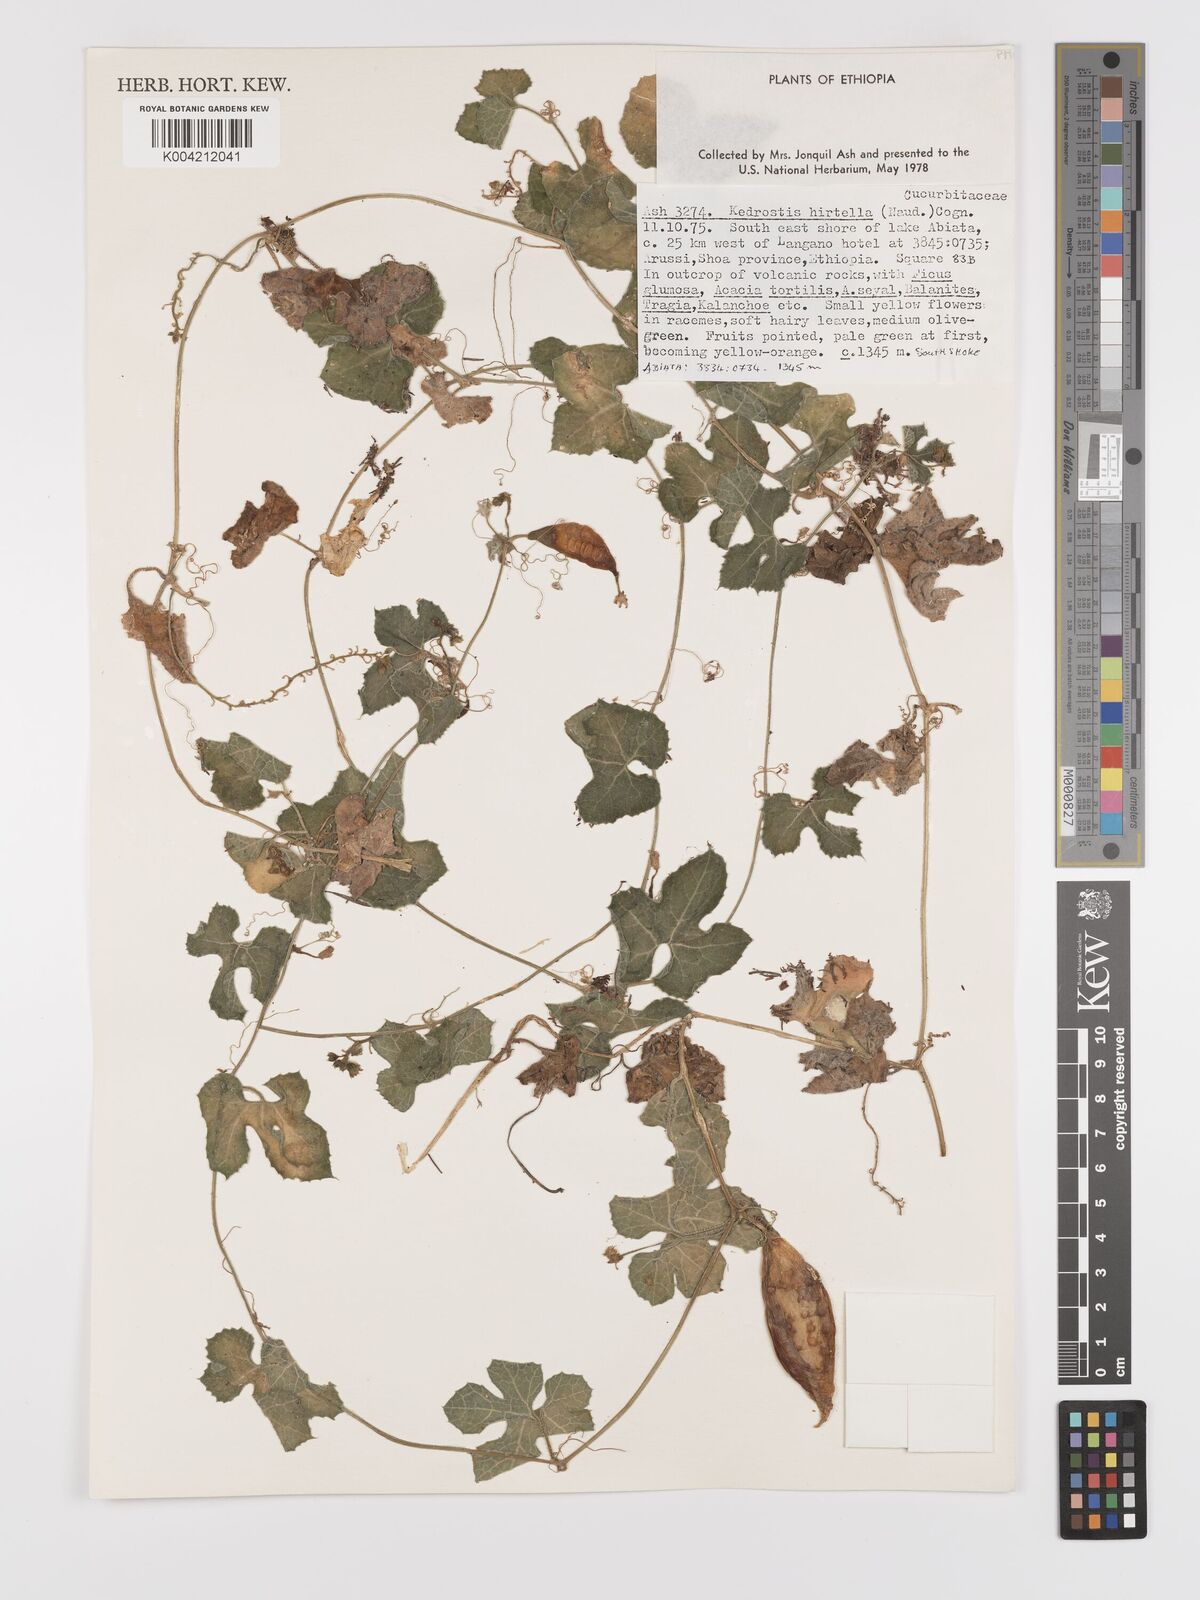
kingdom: Plantae
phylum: Tracheophyta
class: Magnoliopsida
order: Cucurbitales
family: Cucurbitaceae
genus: Kedrostis
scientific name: Kedrostis leloja
